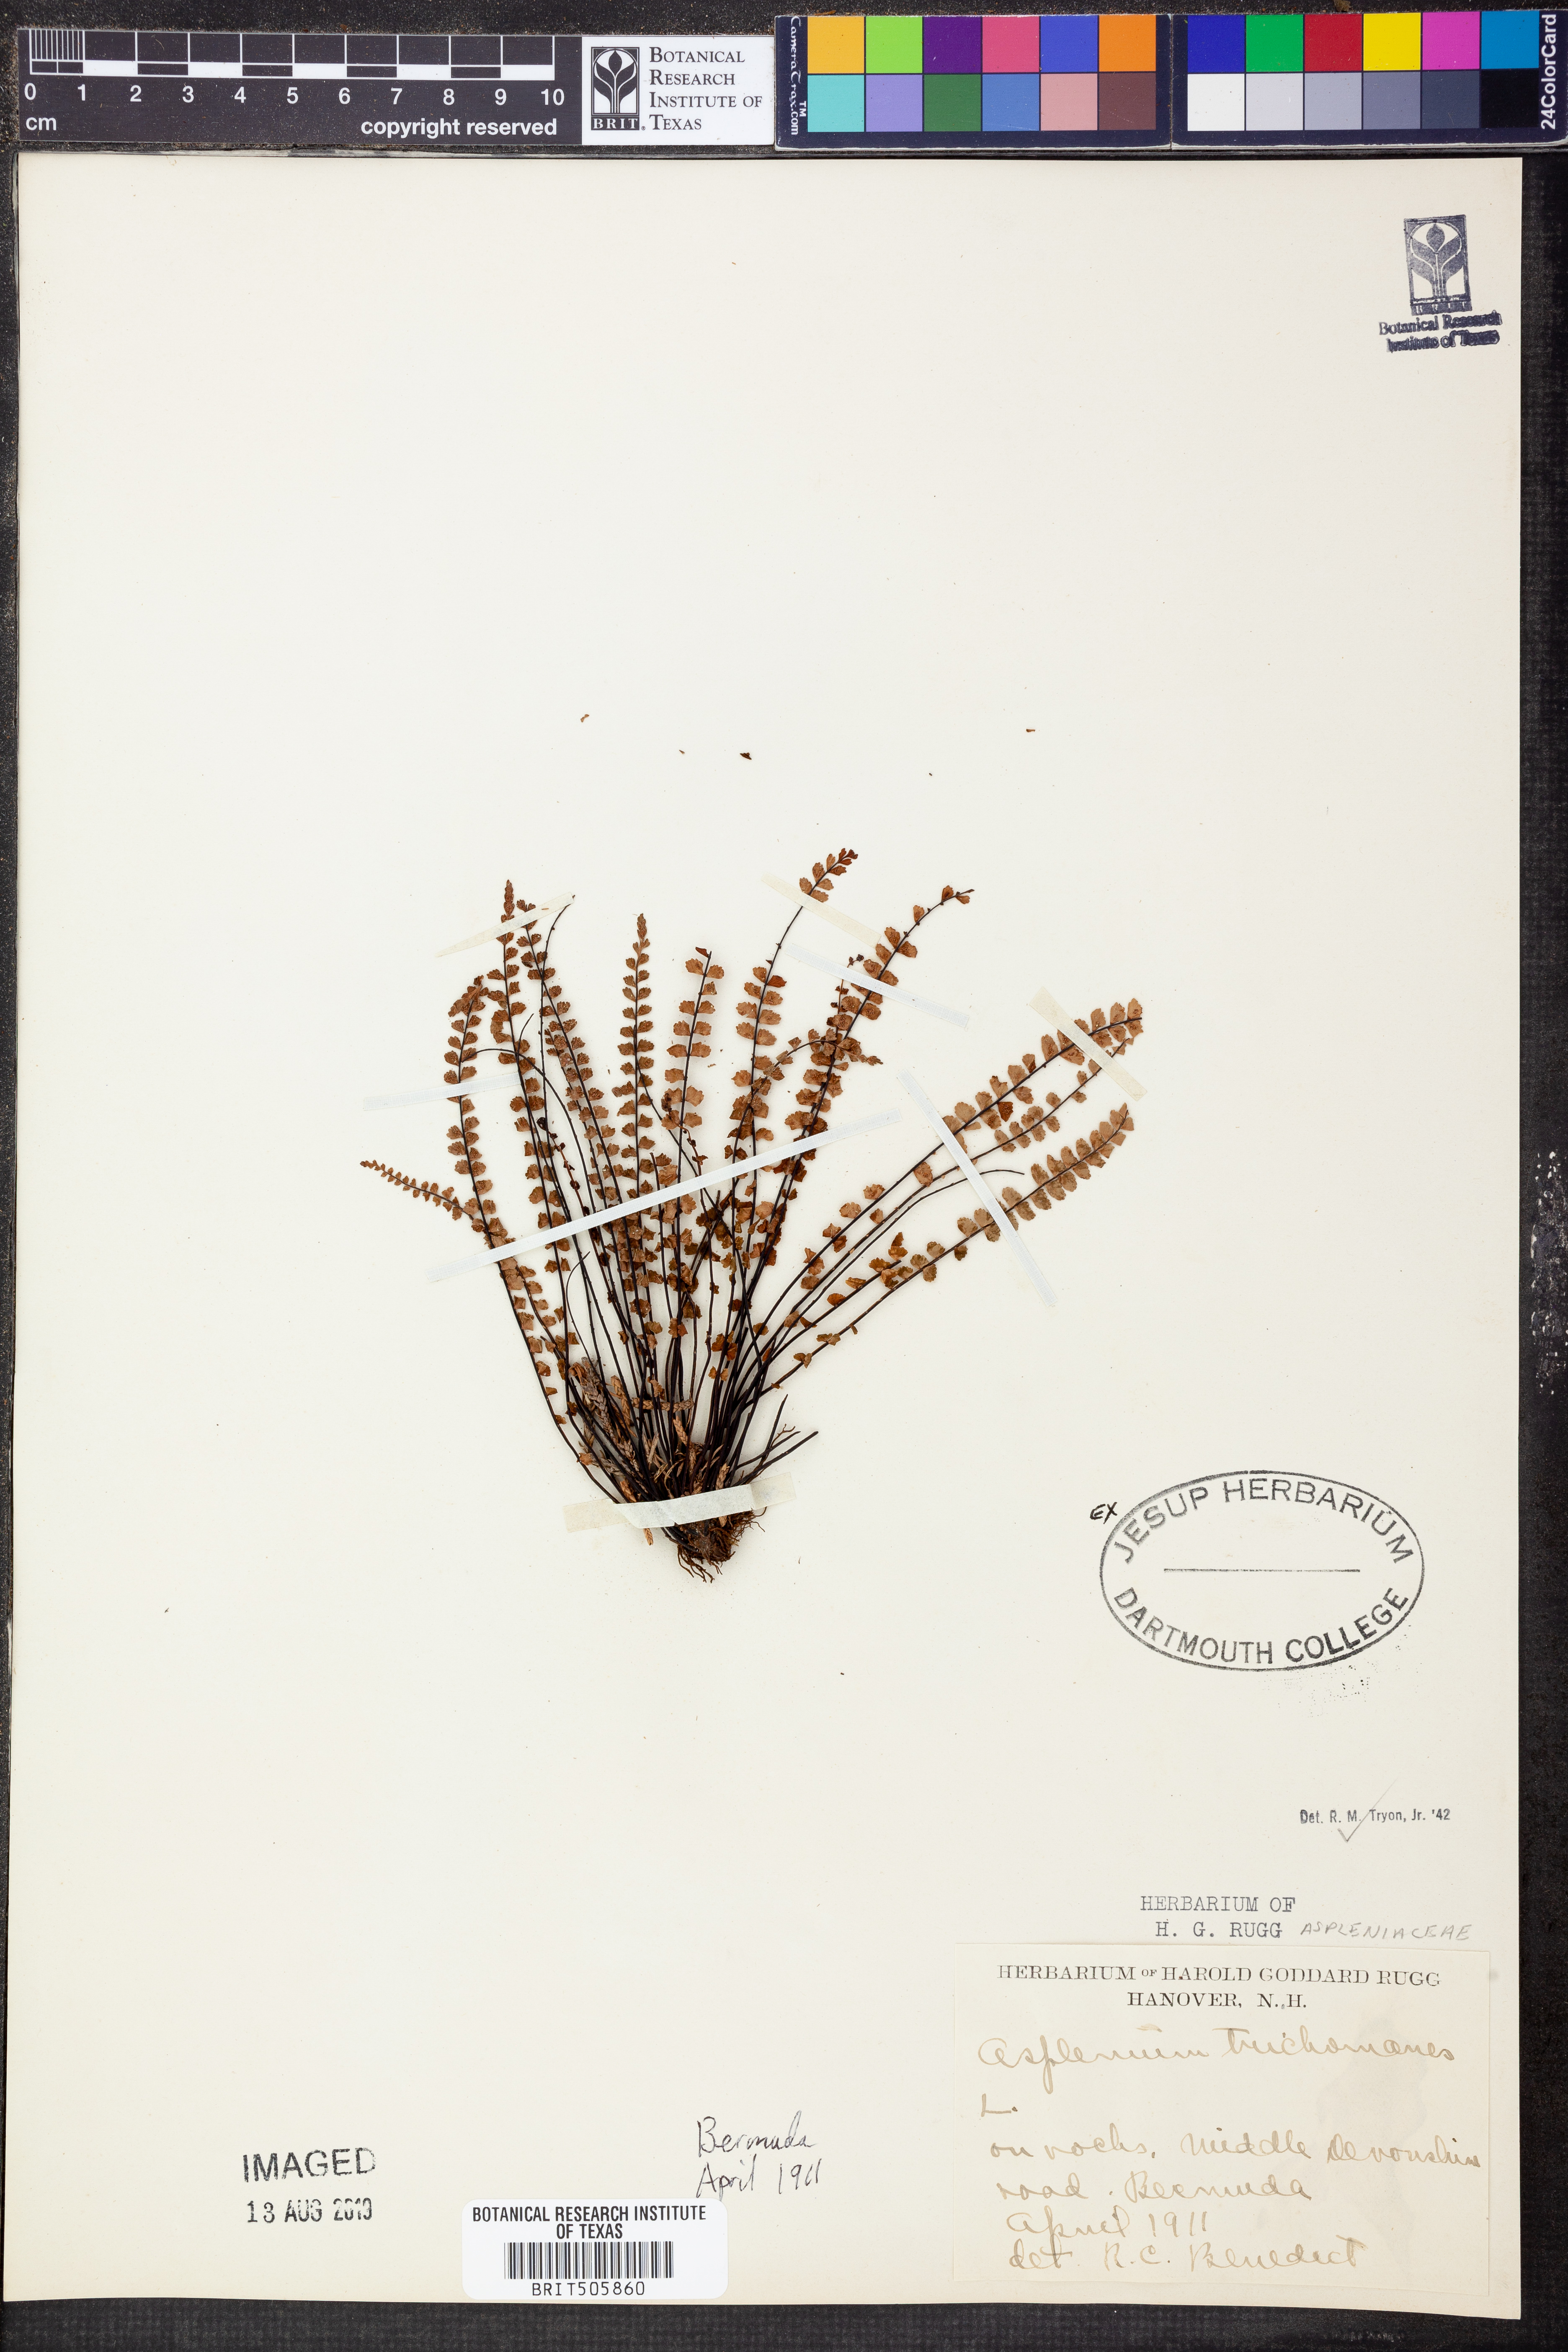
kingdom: Plantae
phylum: Tracheophyta
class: Polypodiopsida
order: Polypodiales
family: Aspleniaceae
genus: Asplenium
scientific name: Asplenium trichomanes
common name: Maidenhair spleenwort
